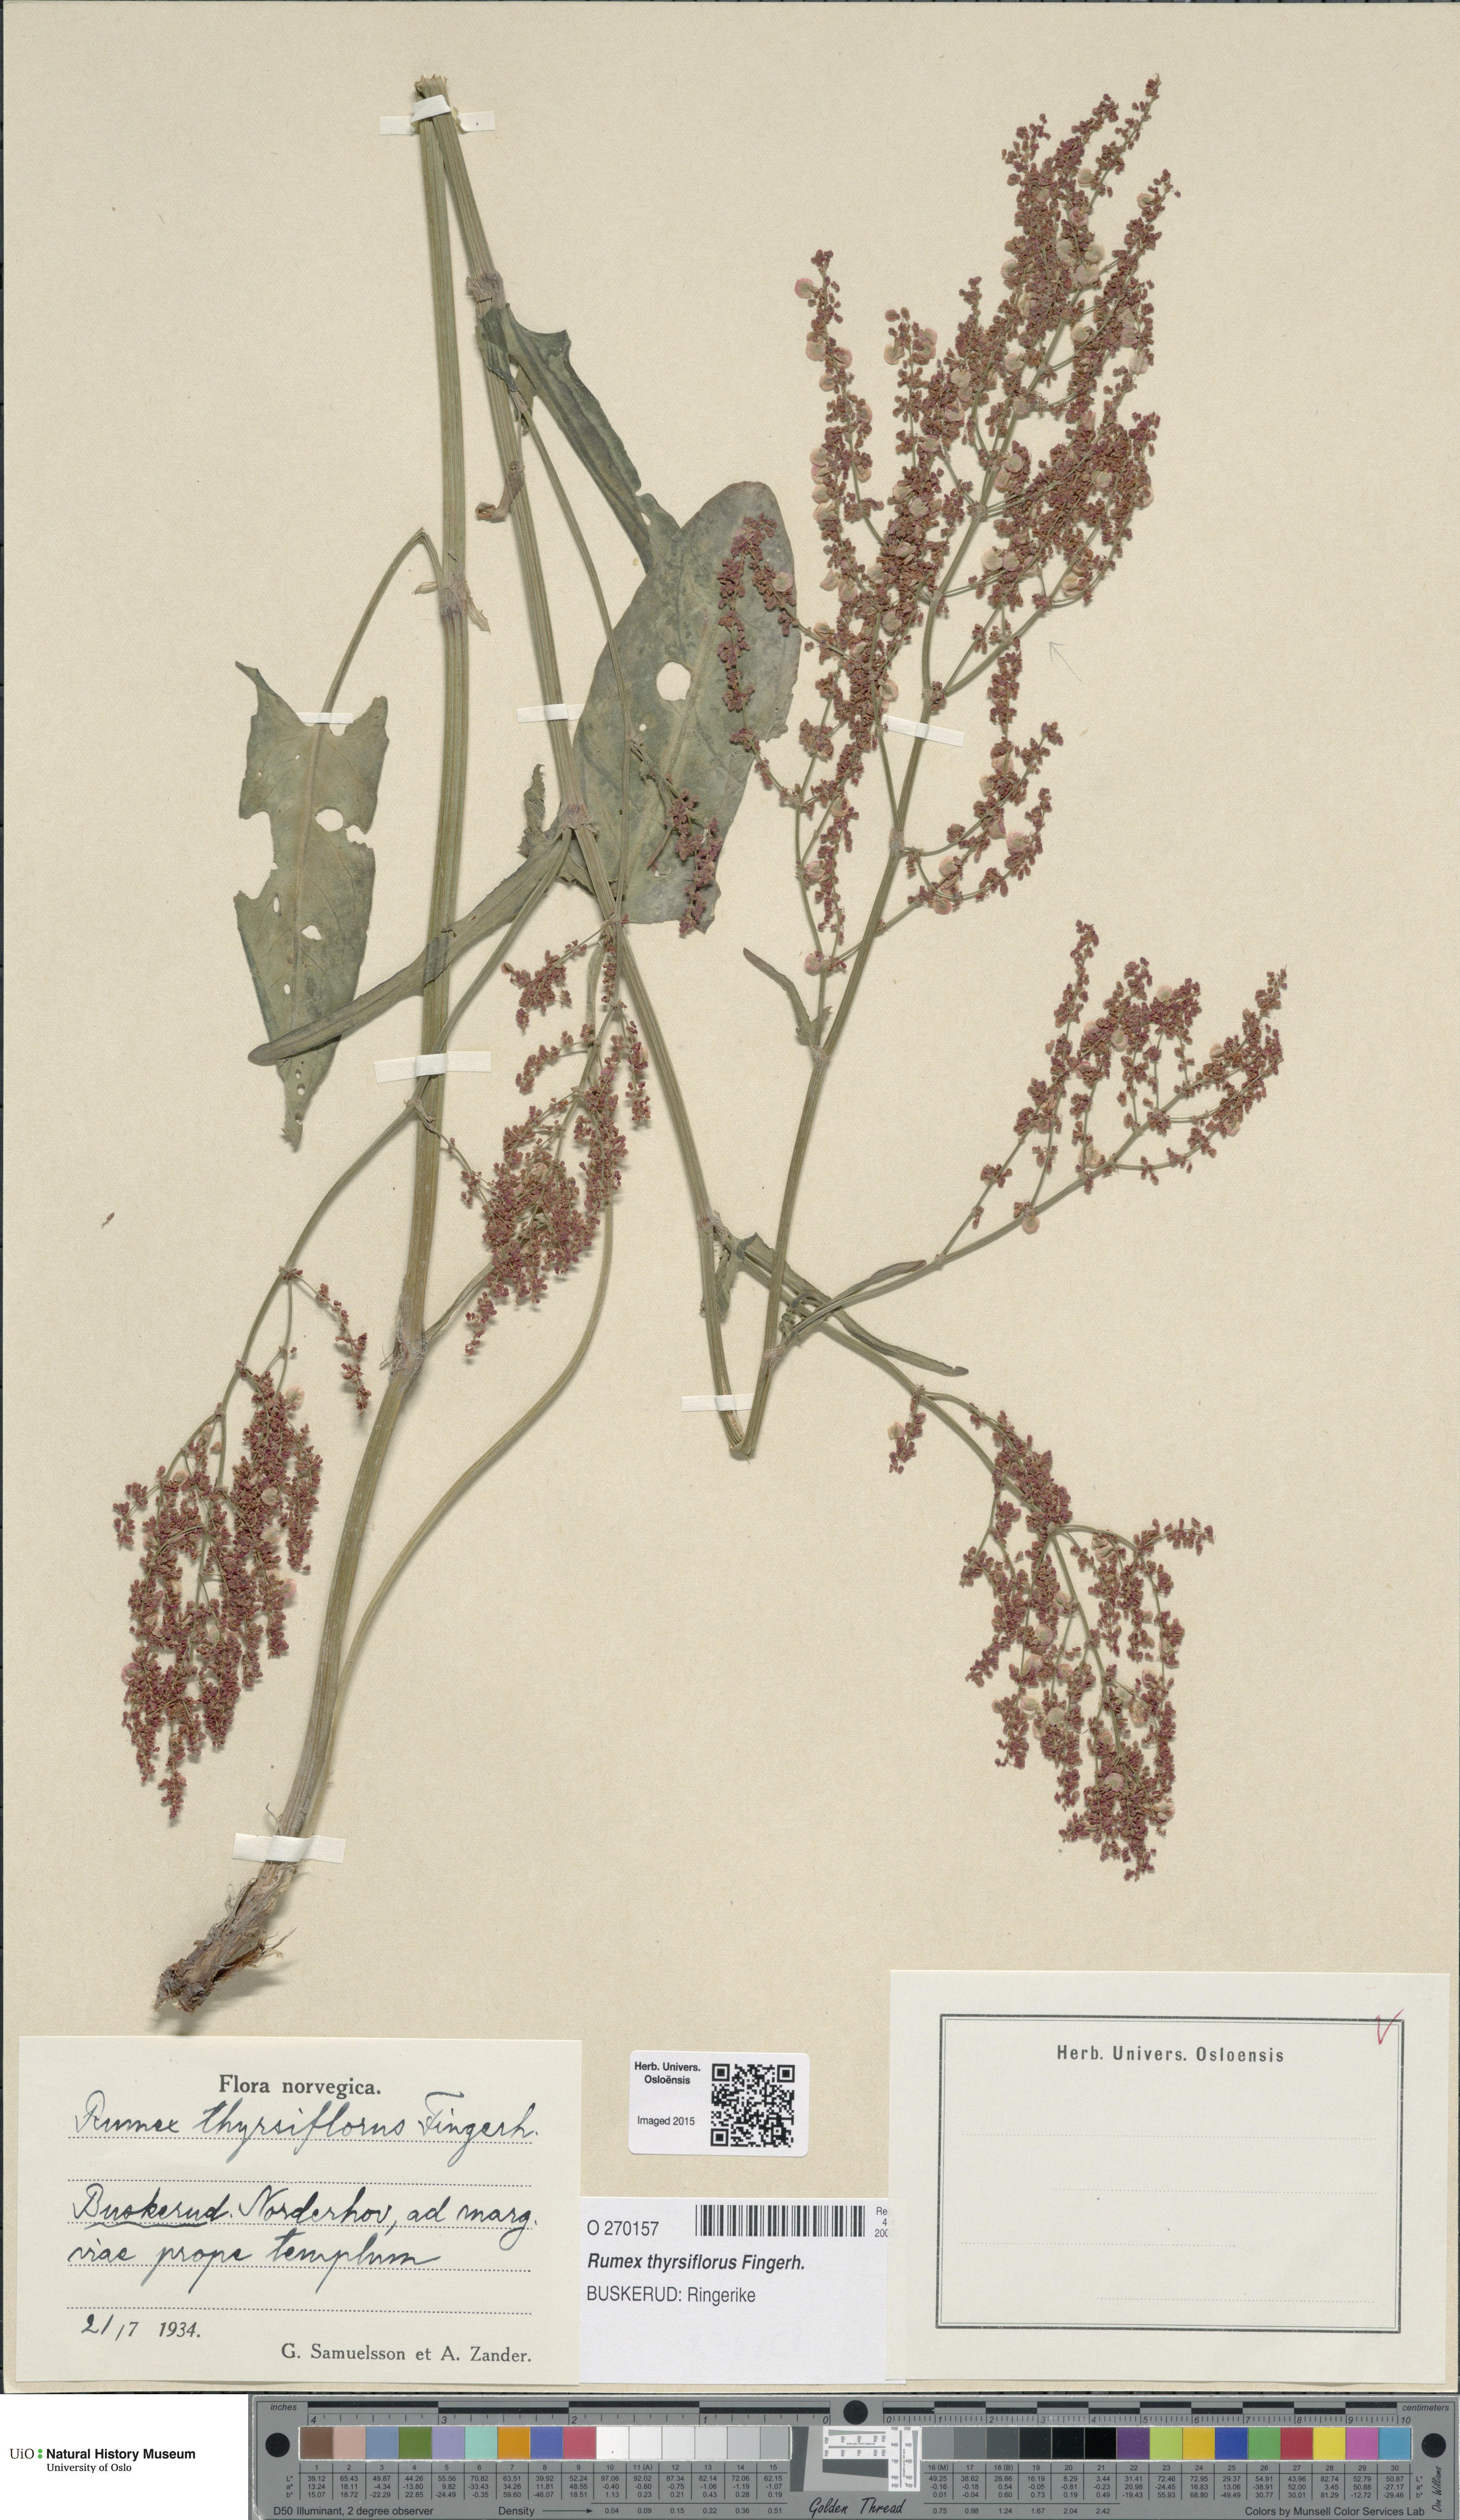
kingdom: Plantae
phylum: Tracheophyta
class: Magnoliopsida
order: Caryophyllales
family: Polygonaceae
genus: Rumex
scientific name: Rumex thyrsiflorus
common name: Garden sorrel
